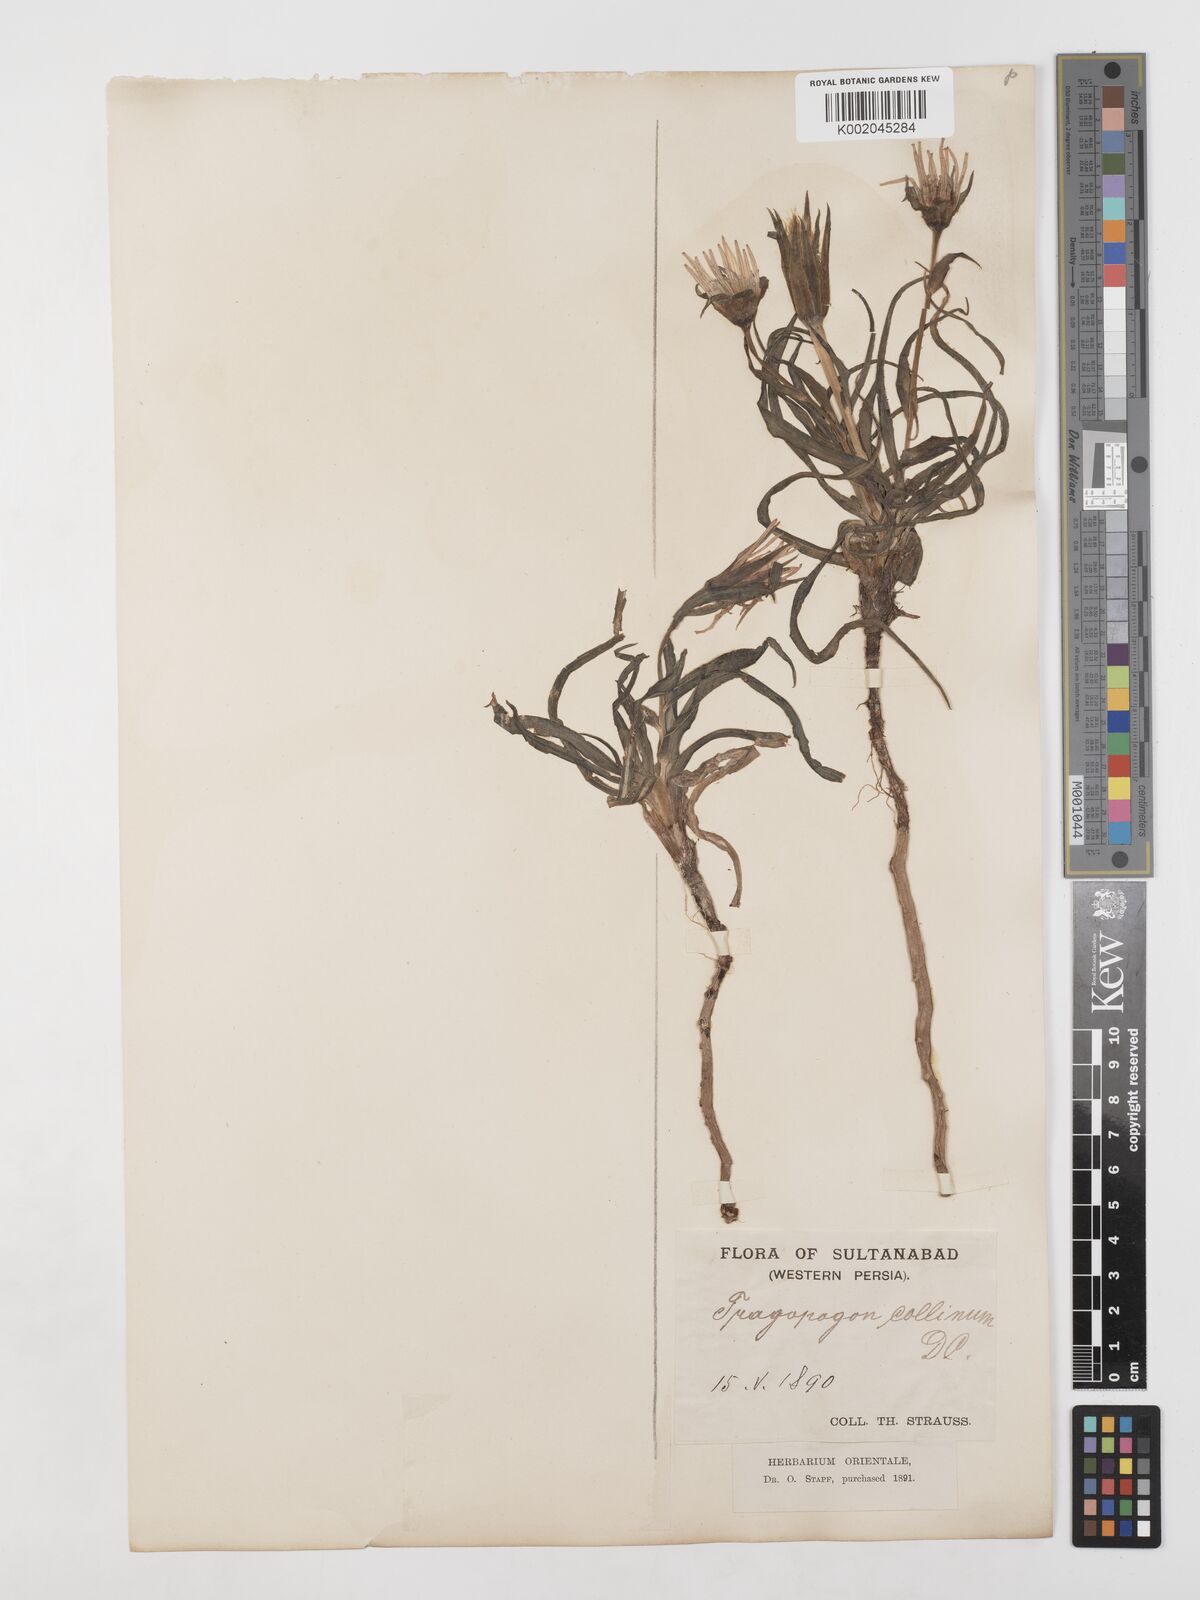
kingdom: Plantae
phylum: Tracheophyta
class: Magnoliopsida
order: Asterales
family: Asteraceae
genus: Tragopogon
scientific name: Tragopogon collinus
